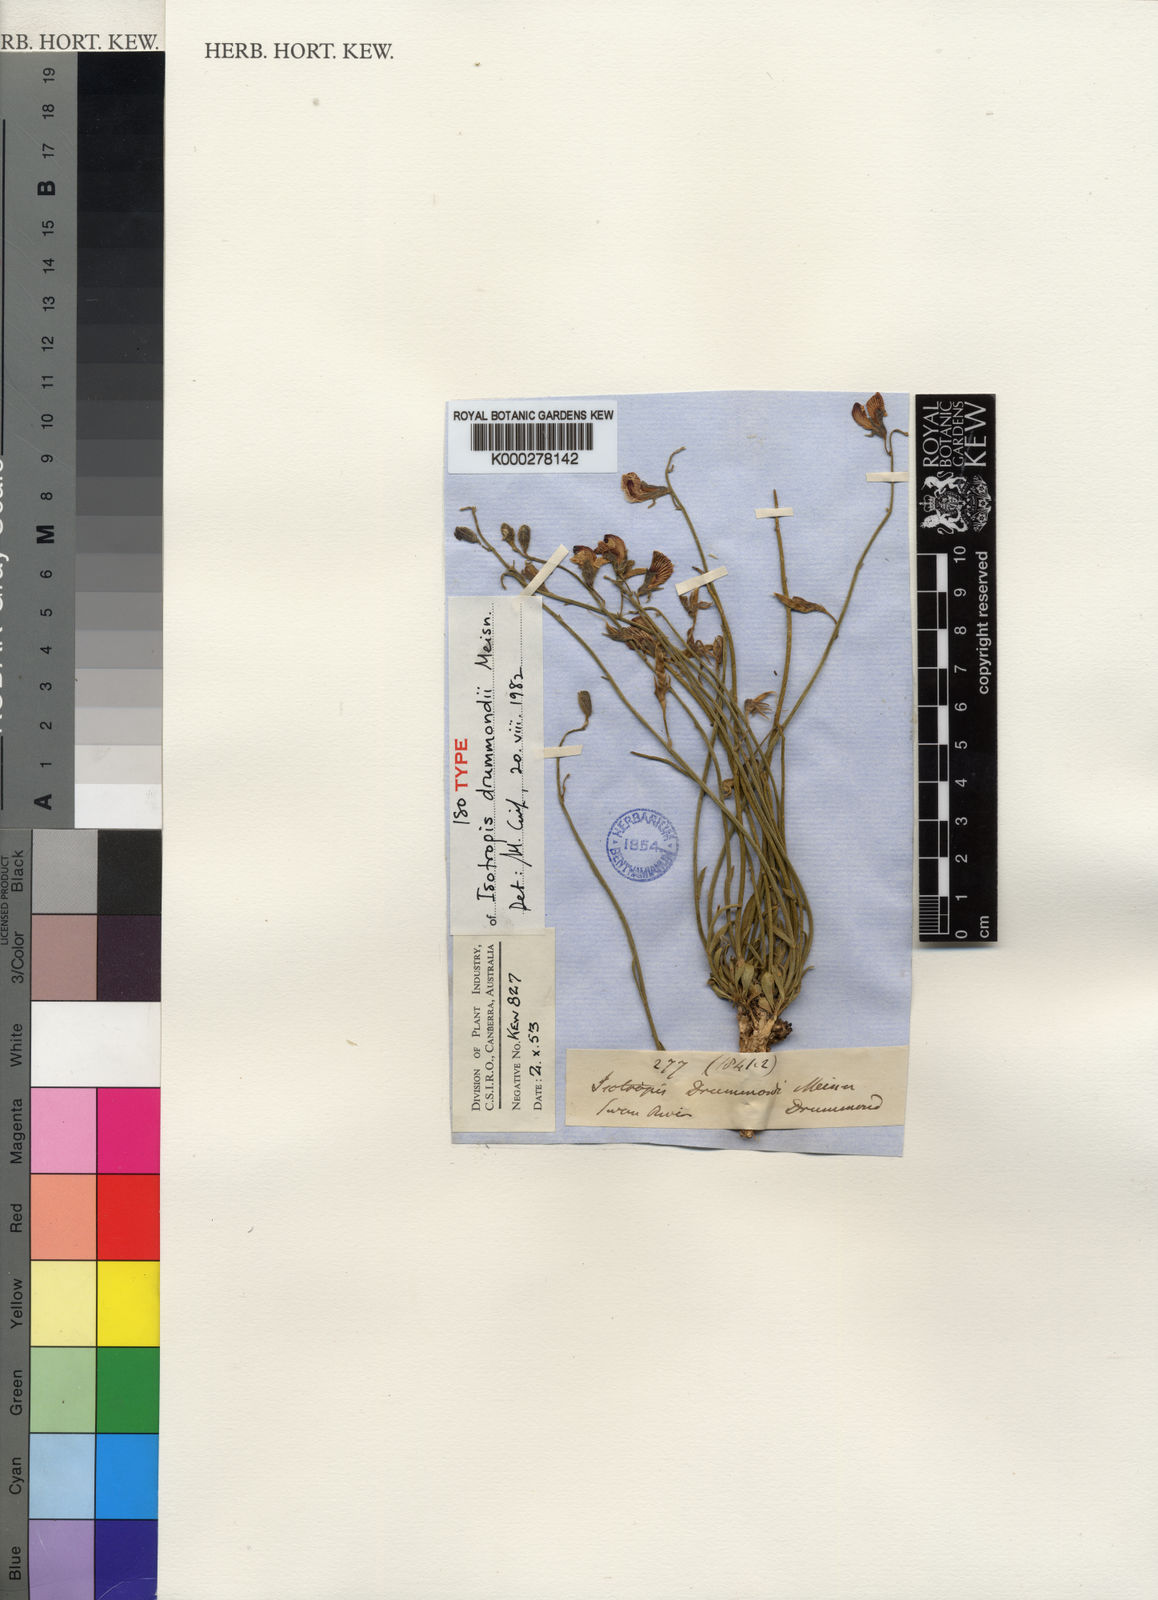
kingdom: Plantae
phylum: Tracheophyta
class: Magnoliopsida
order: Fabales
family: Fabaceae
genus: Isotropis
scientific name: Isotropis drummondii
